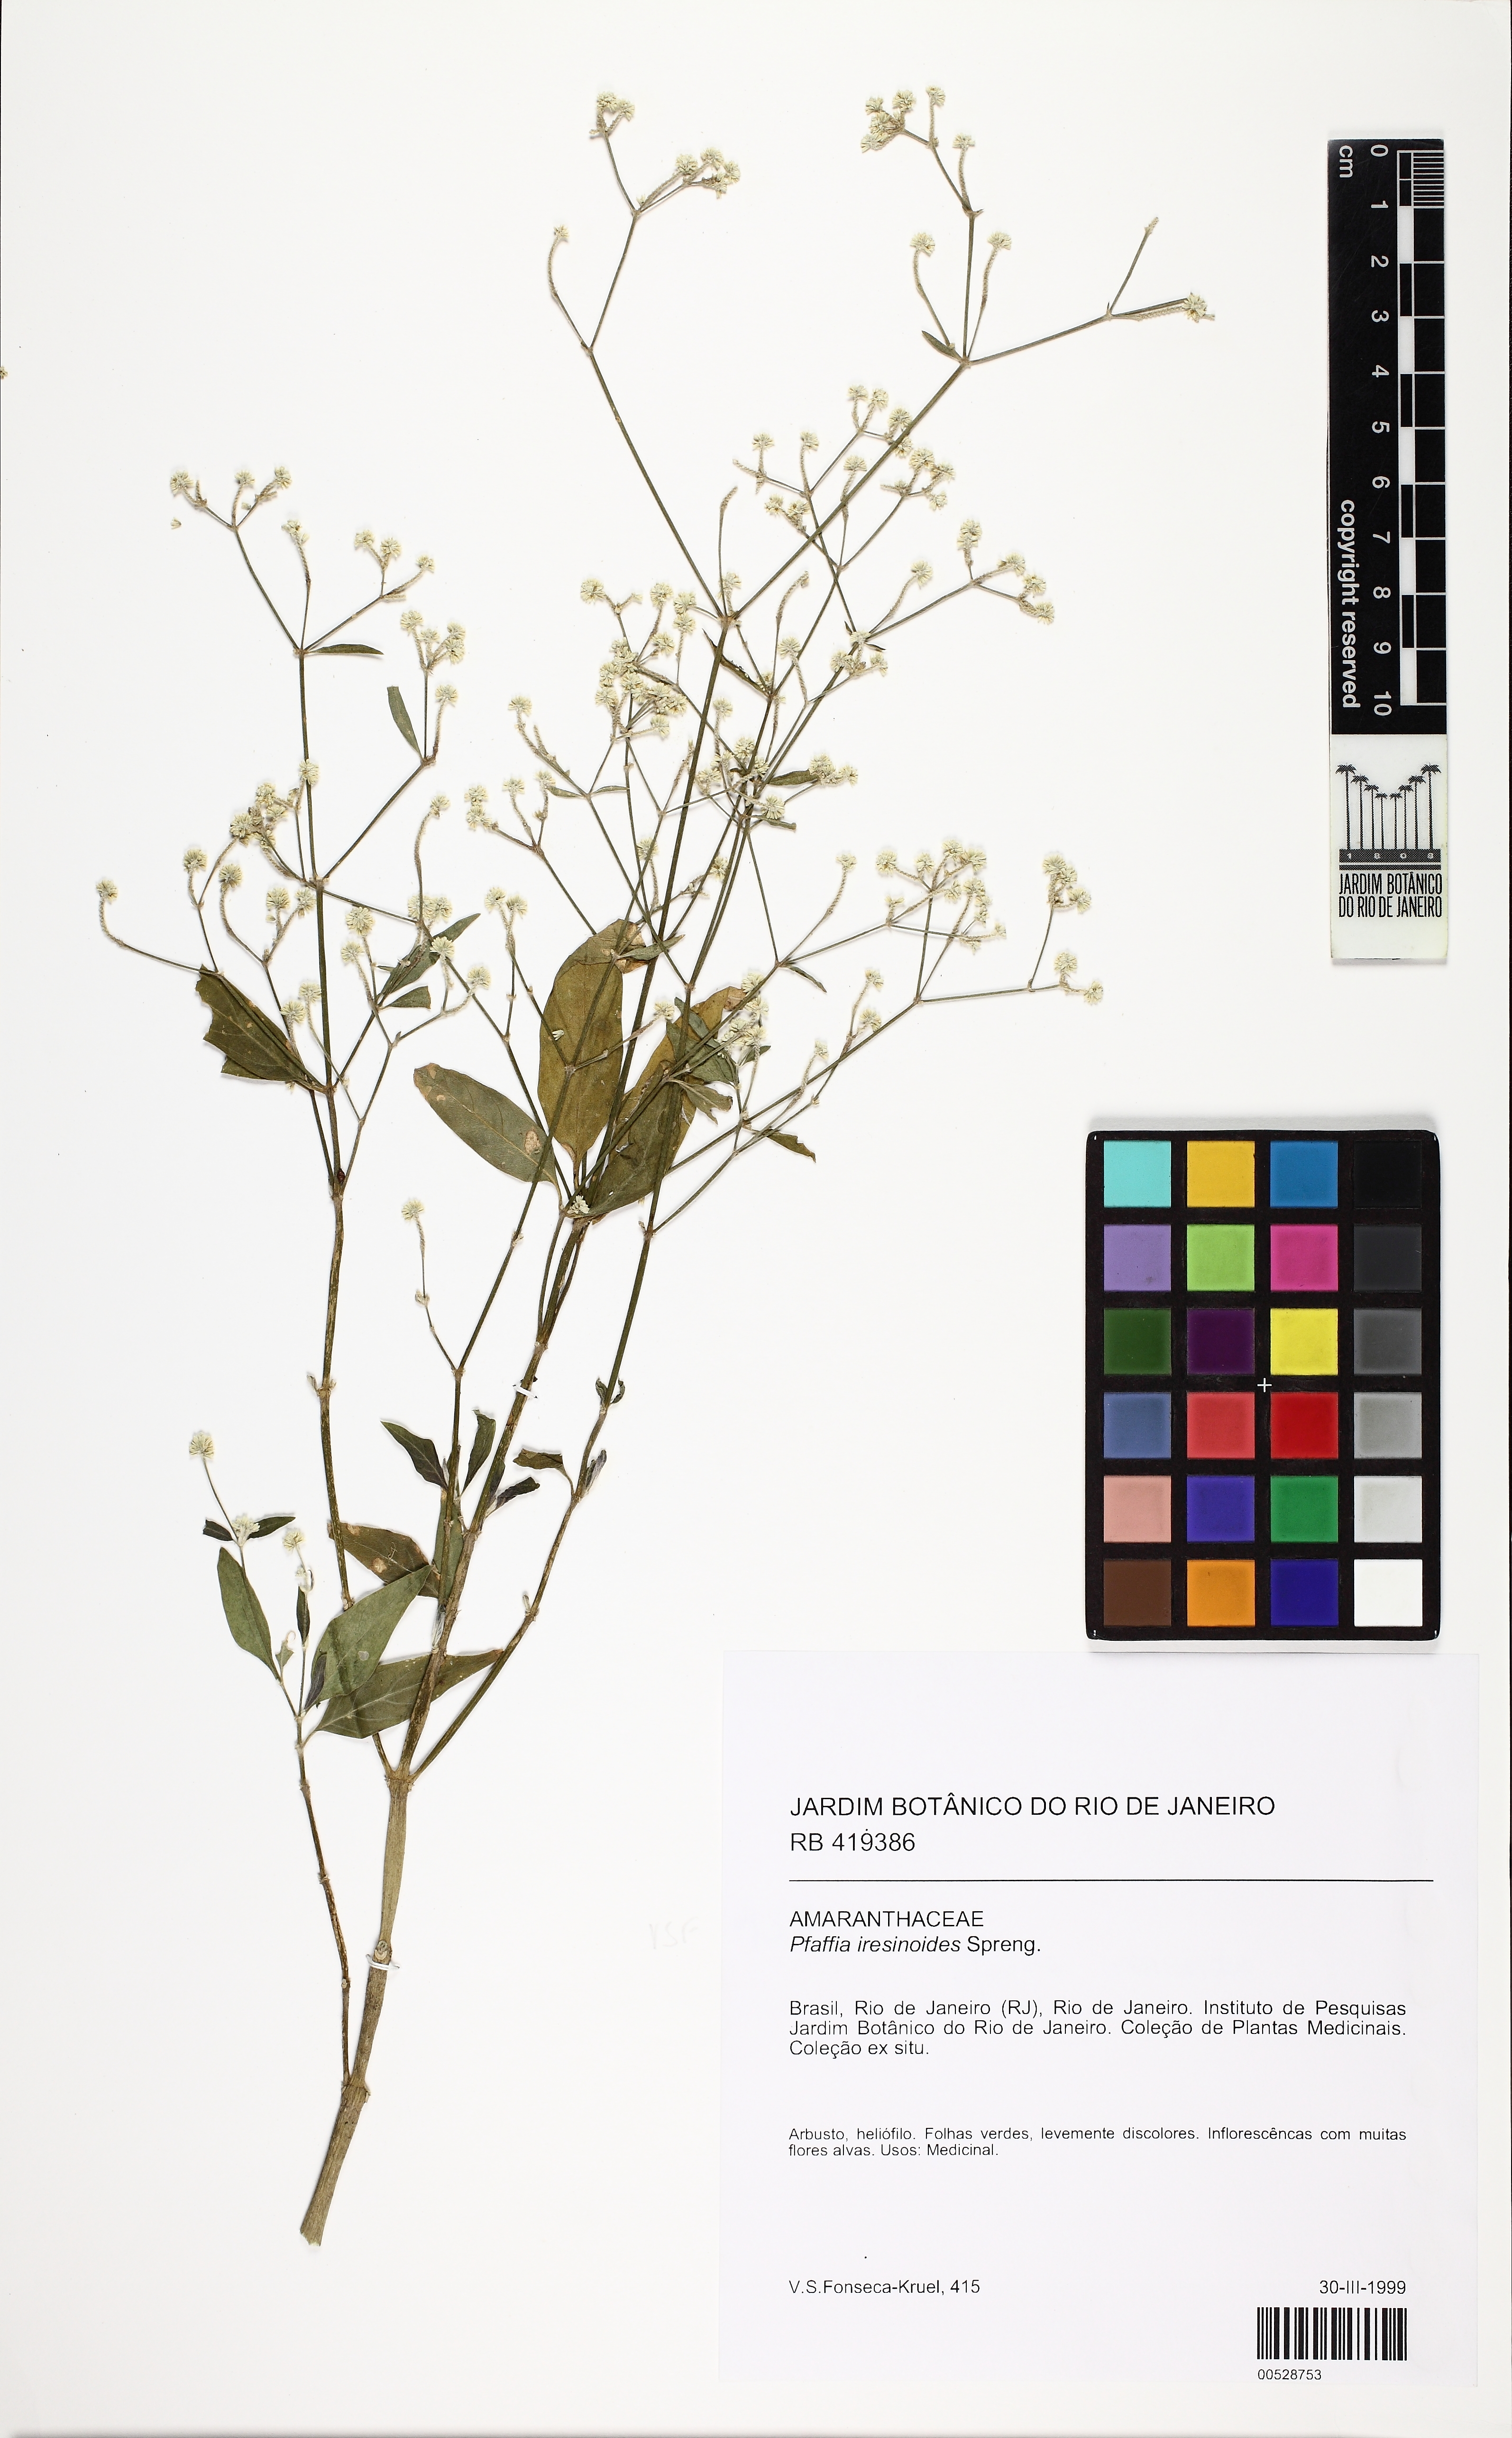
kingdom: Plantae
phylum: Tracheophyta
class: Magnoliopsida
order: Caryophyllales
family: Amaranthaceae
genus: Pfaffia
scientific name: Pfaffia iresinoides
